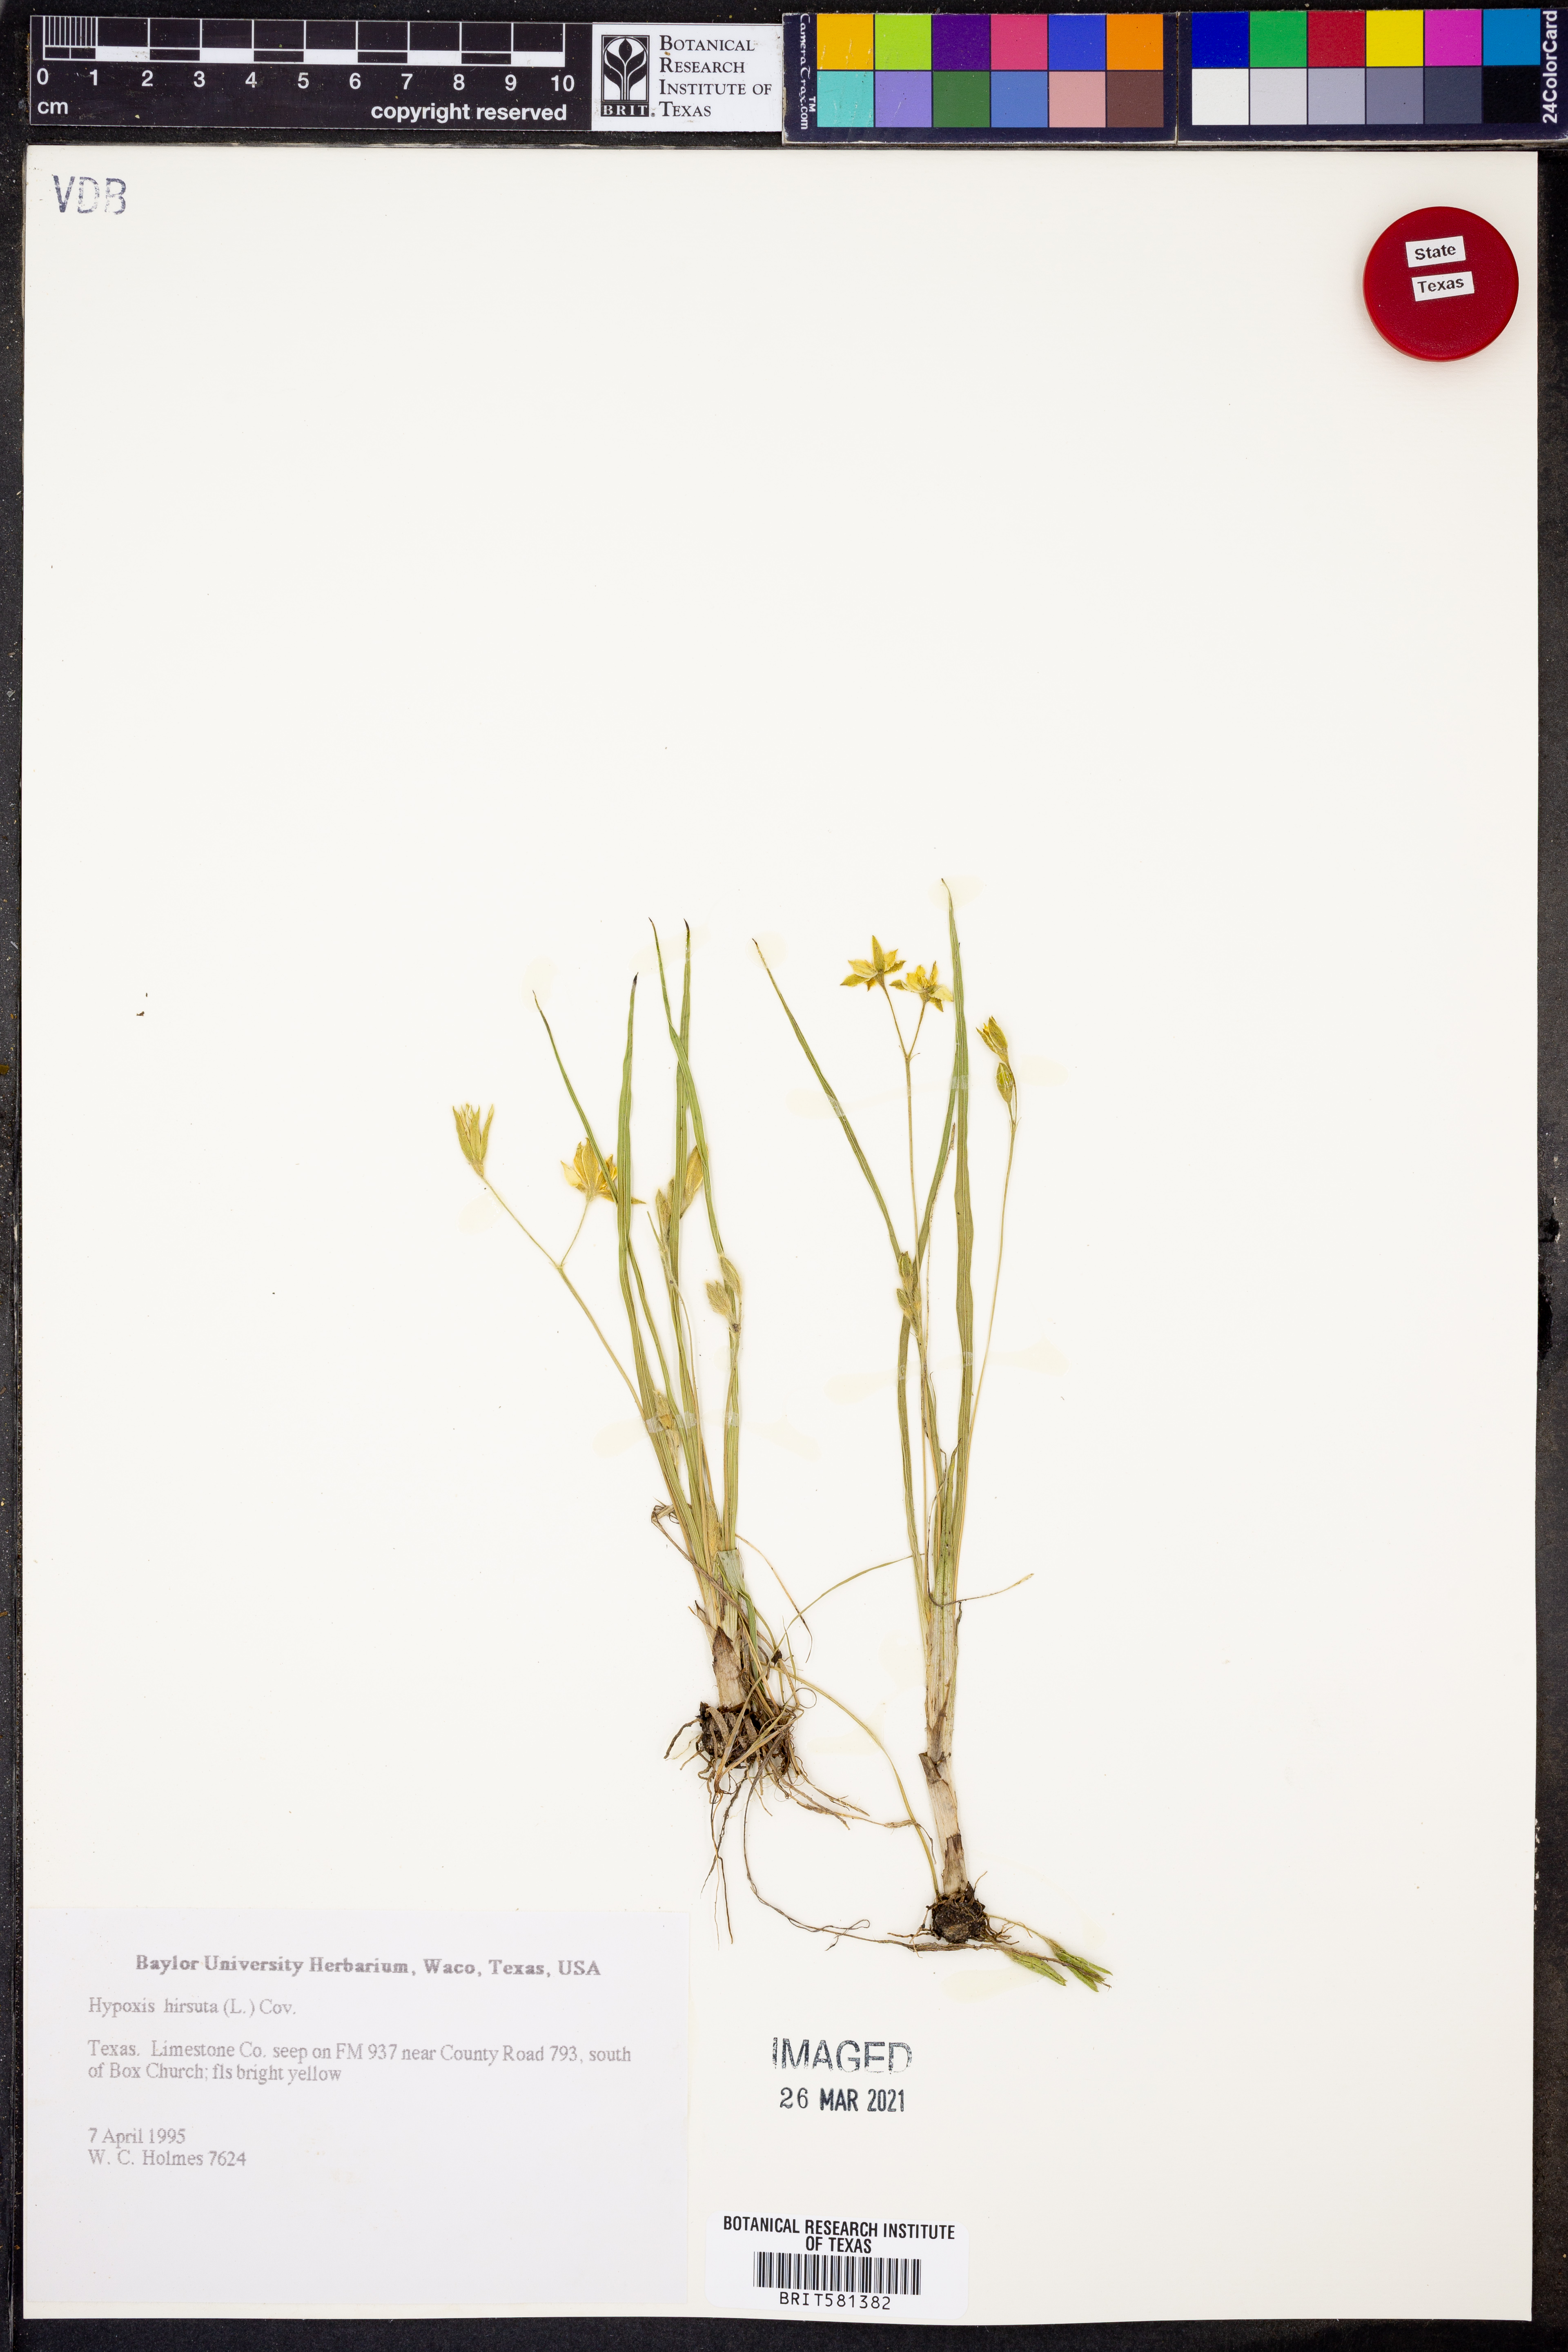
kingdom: Plantae
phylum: Tracheophyta
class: Liliopsida
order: Asparagales
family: Hypoxidaceae
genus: Hypoxis
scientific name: Hypoxis hirsuta
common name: Common goldstar
